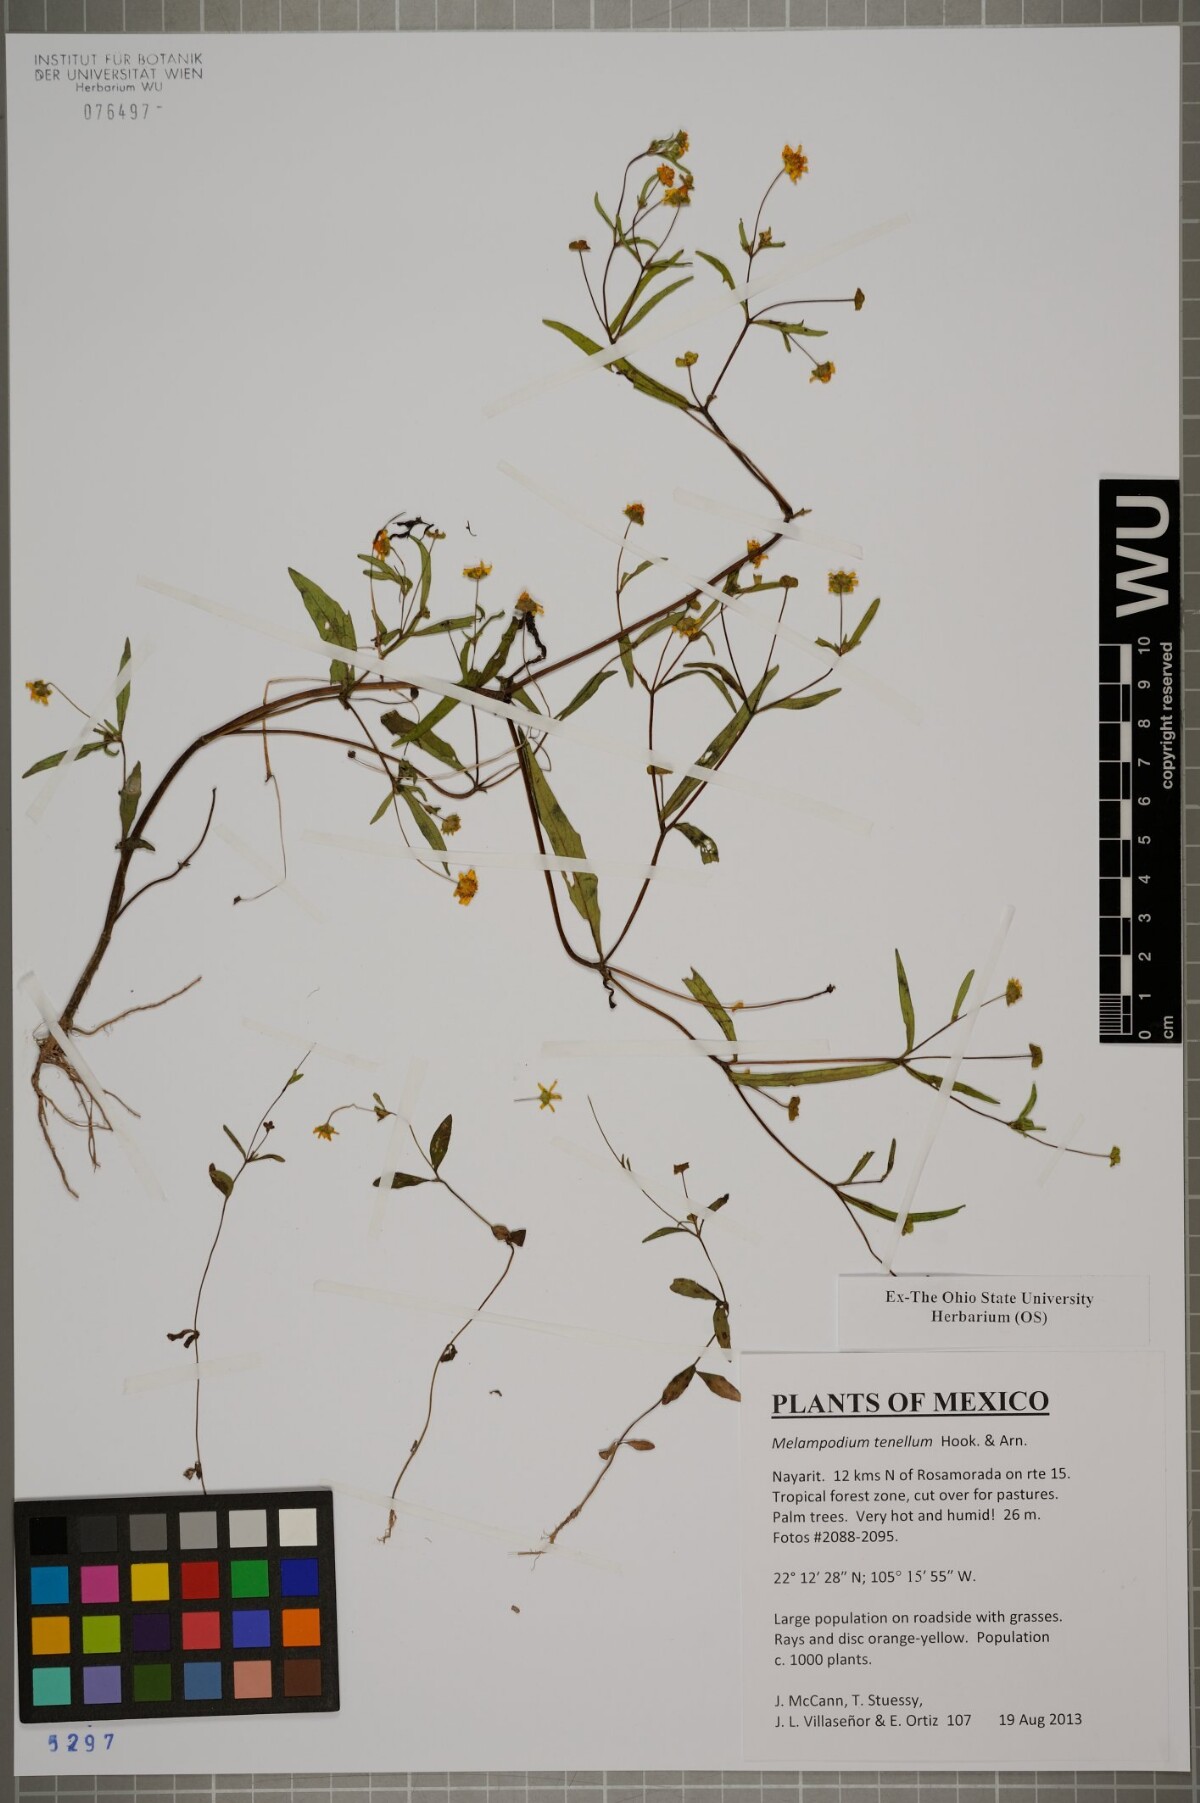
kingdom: Plantae
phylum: Tracheophyta
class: Magnoliopsida
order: Asterales
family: Asteraceae
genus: Melampodium
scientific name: Melampodium tenellum
